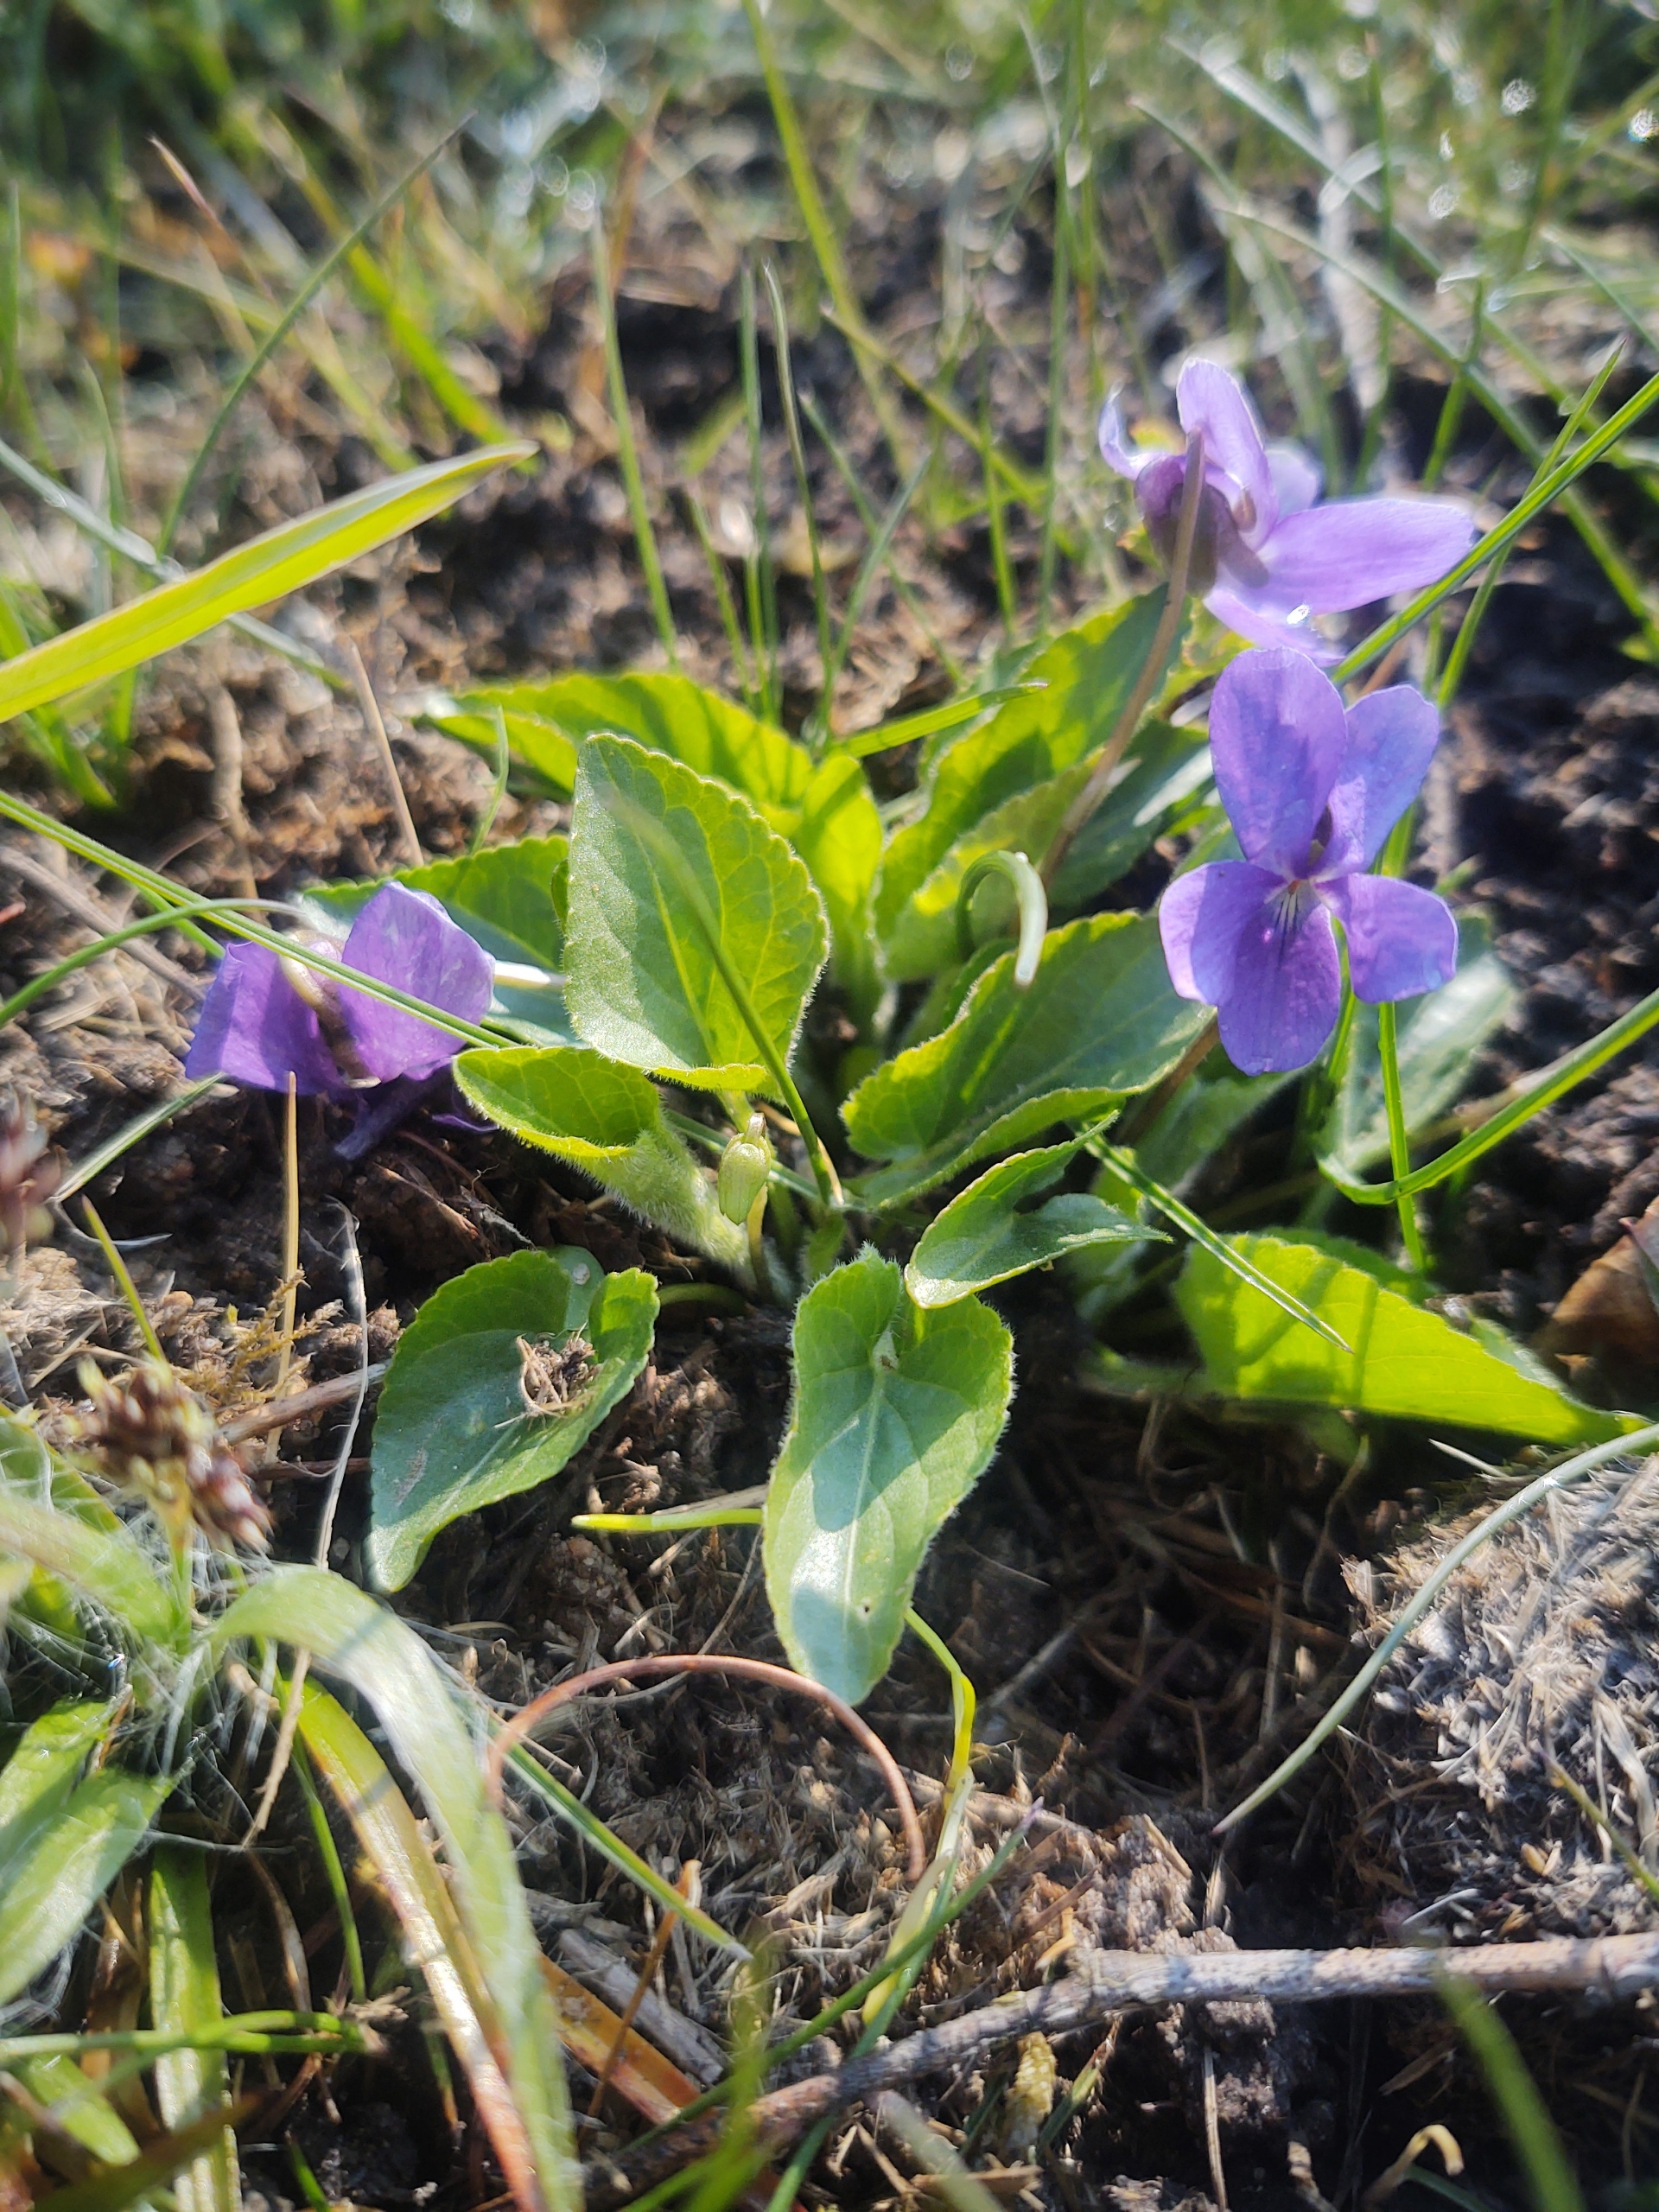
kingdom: Plantae
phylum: Tracheophyta
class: Magnoliopsida
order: Malpighiales
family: Violaceae
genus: Viola
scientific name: Viola hirta
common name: Håret viol
